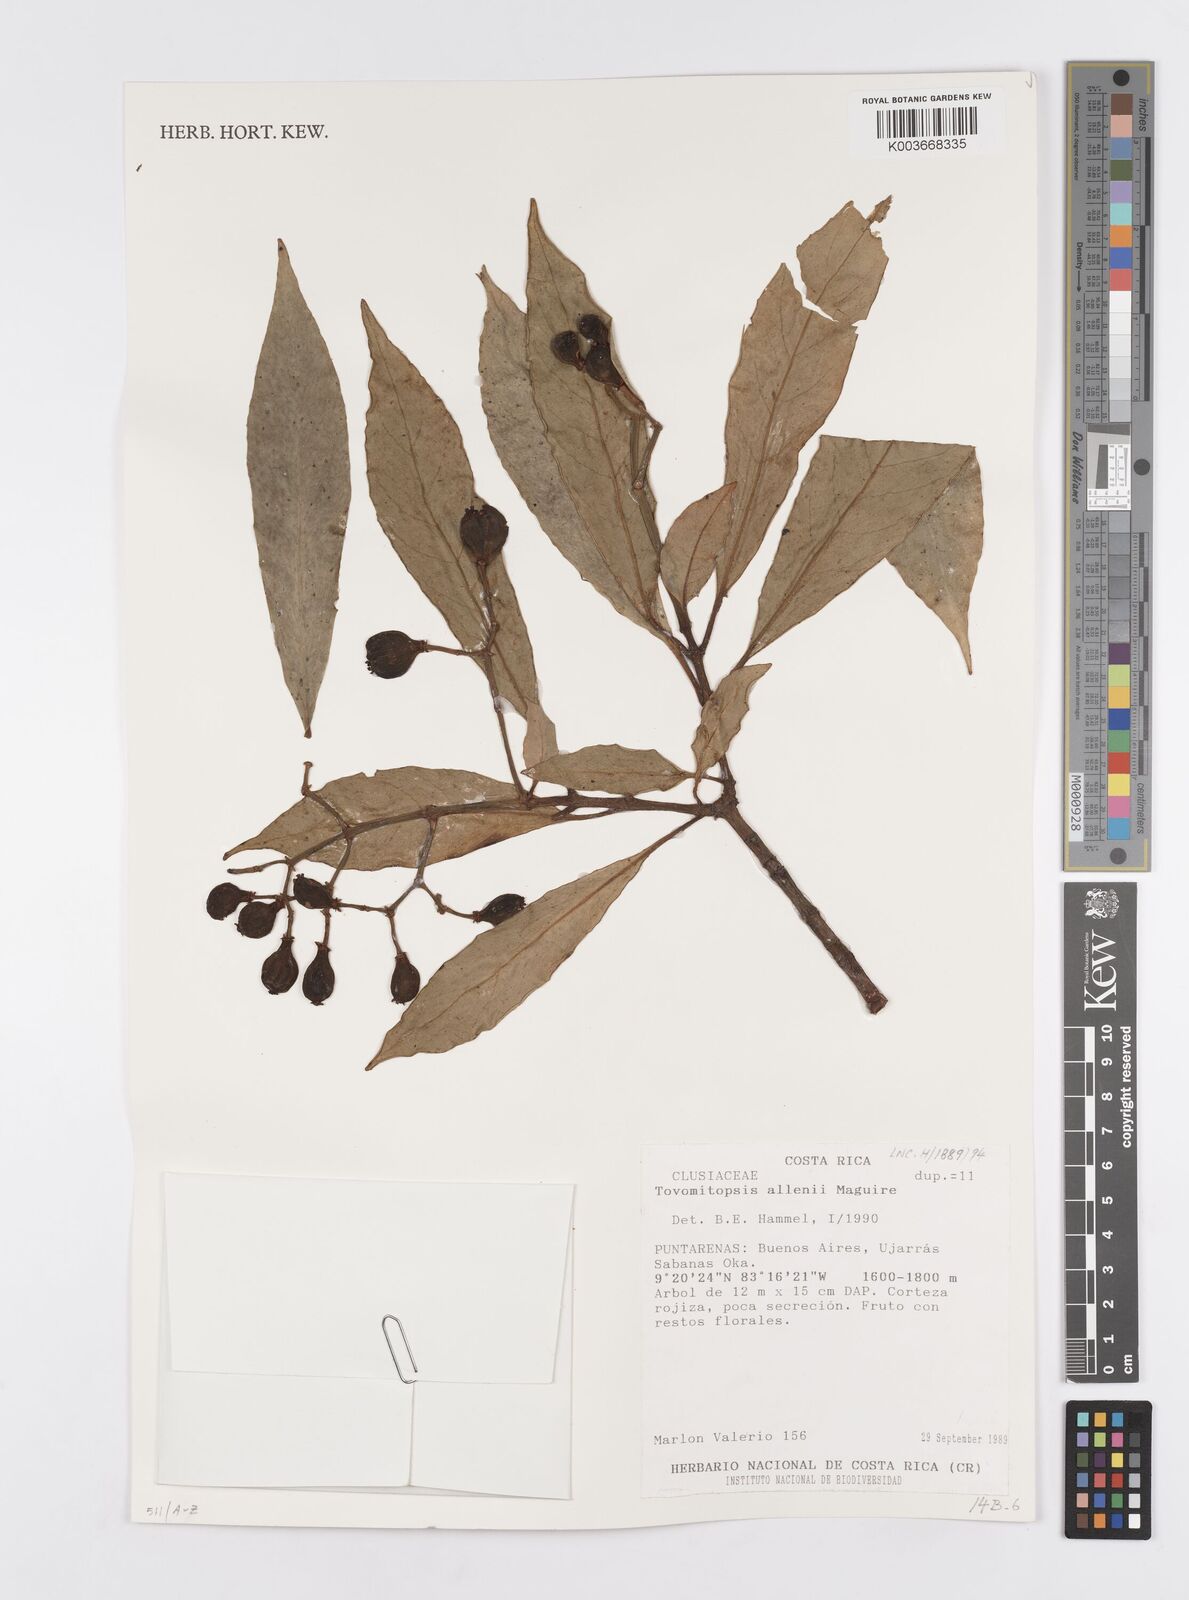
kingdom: Plantae
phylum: Tracheophyta
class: Magnoliopsida
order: Malpighiales
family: Clusiaceae
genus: Chrysochlamys
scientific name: Chrysochlamys allenii
